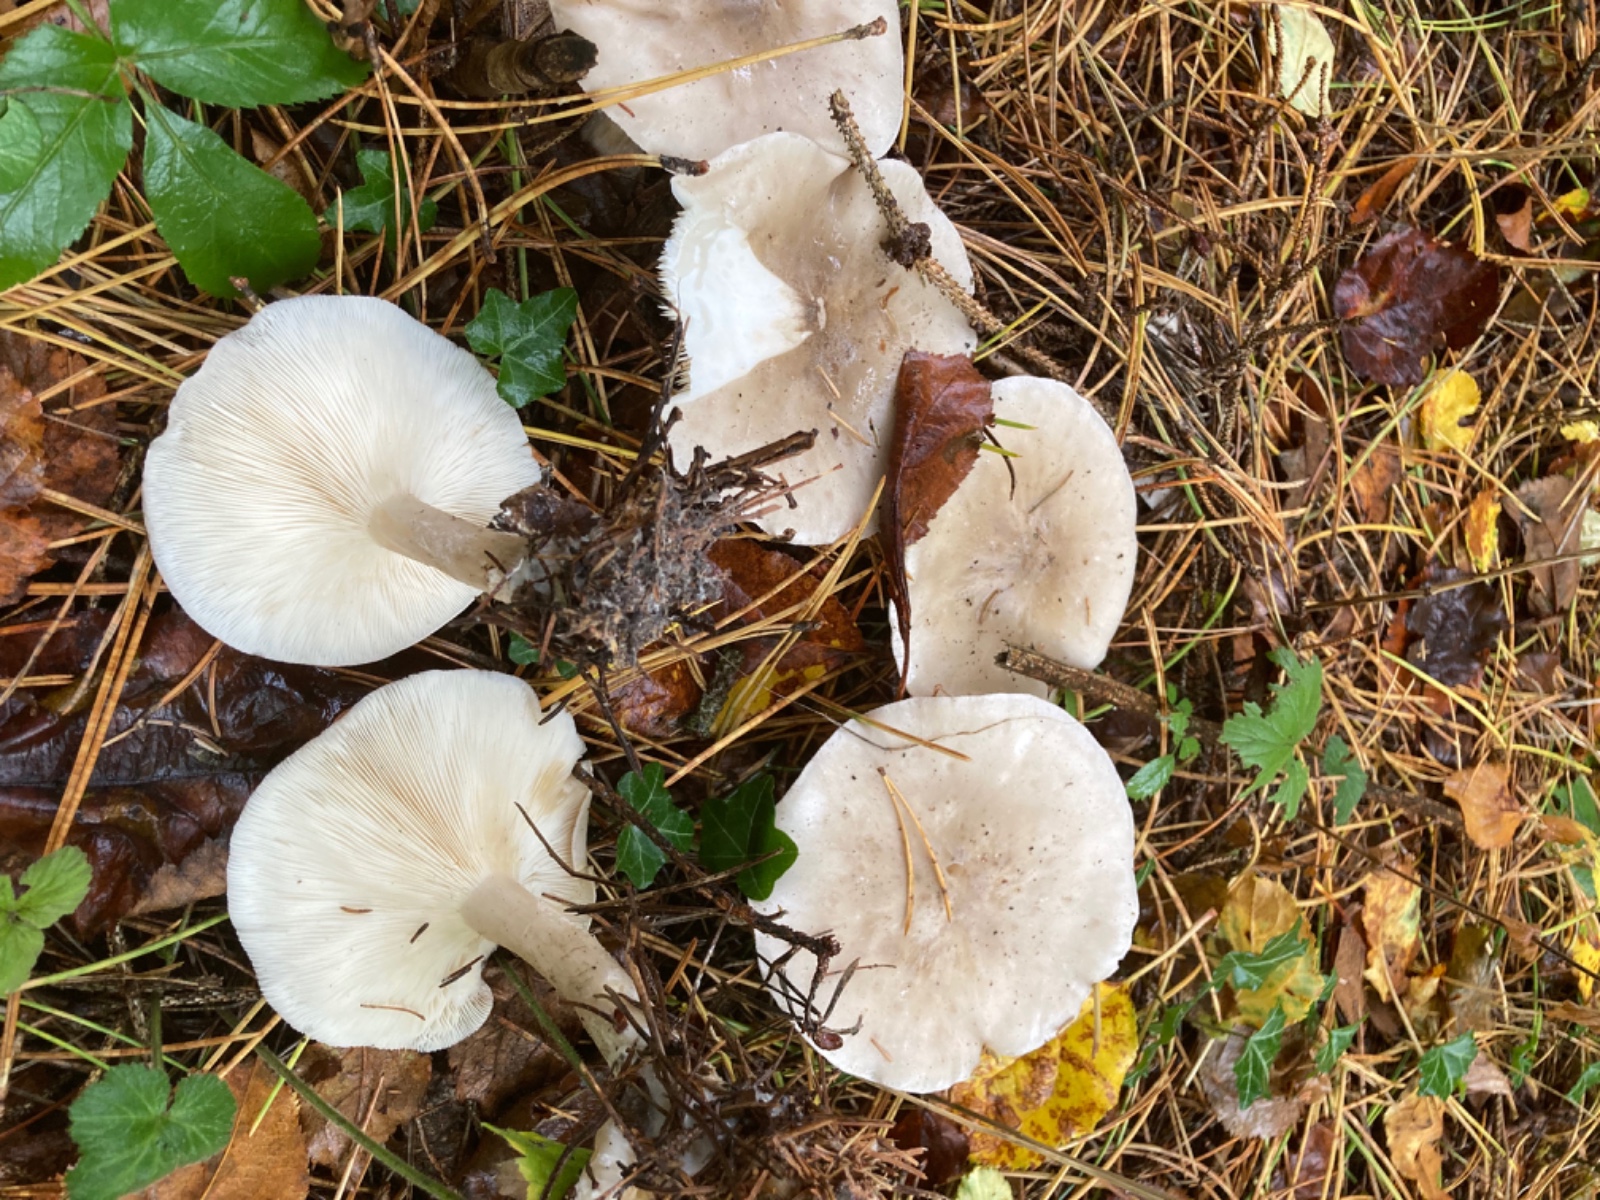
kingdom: Fungi
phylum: Basidiomycota
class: Agaricomycetes
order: Agaricales
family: Tricholomataceae
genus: Clitocybe
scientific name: Clitocybe nebularis
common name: tåge-tragthat
